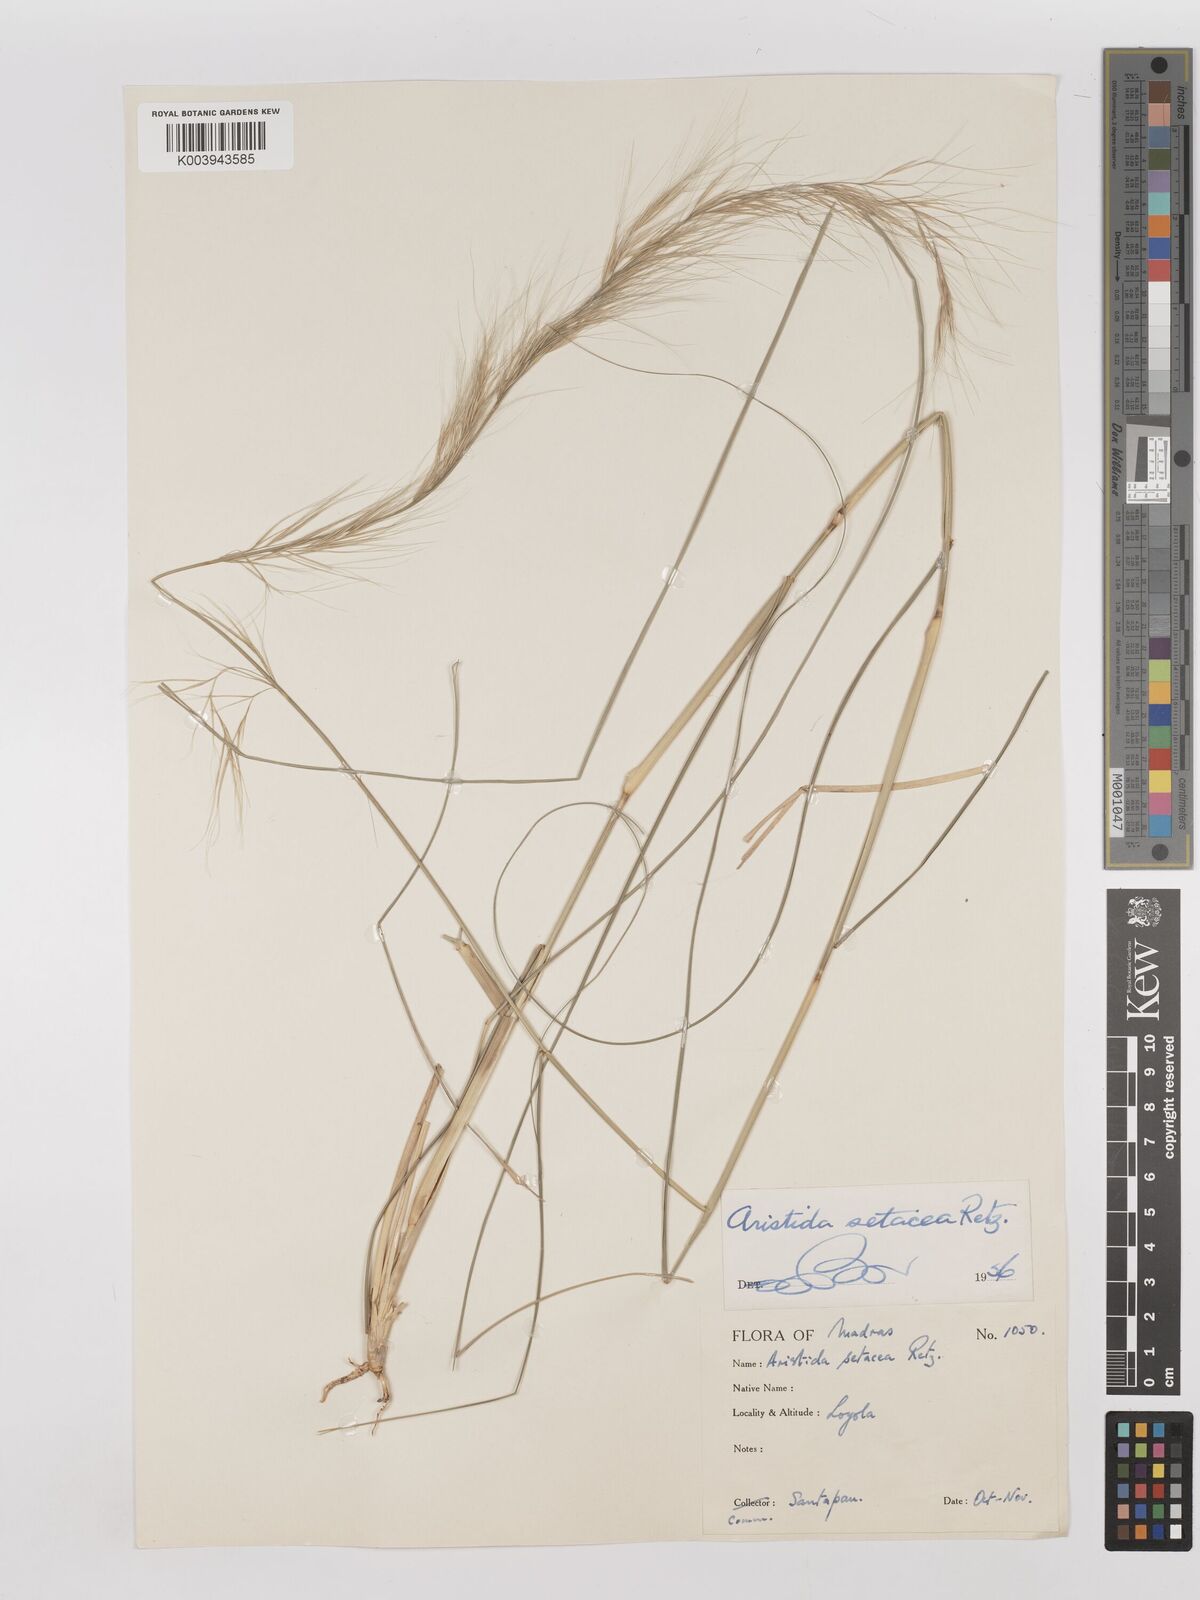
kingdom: Plantae
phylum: Tracheophyta
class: Liliopsida
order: Poales
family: Poaceae
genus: Aristida
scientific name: Aristida setacea
